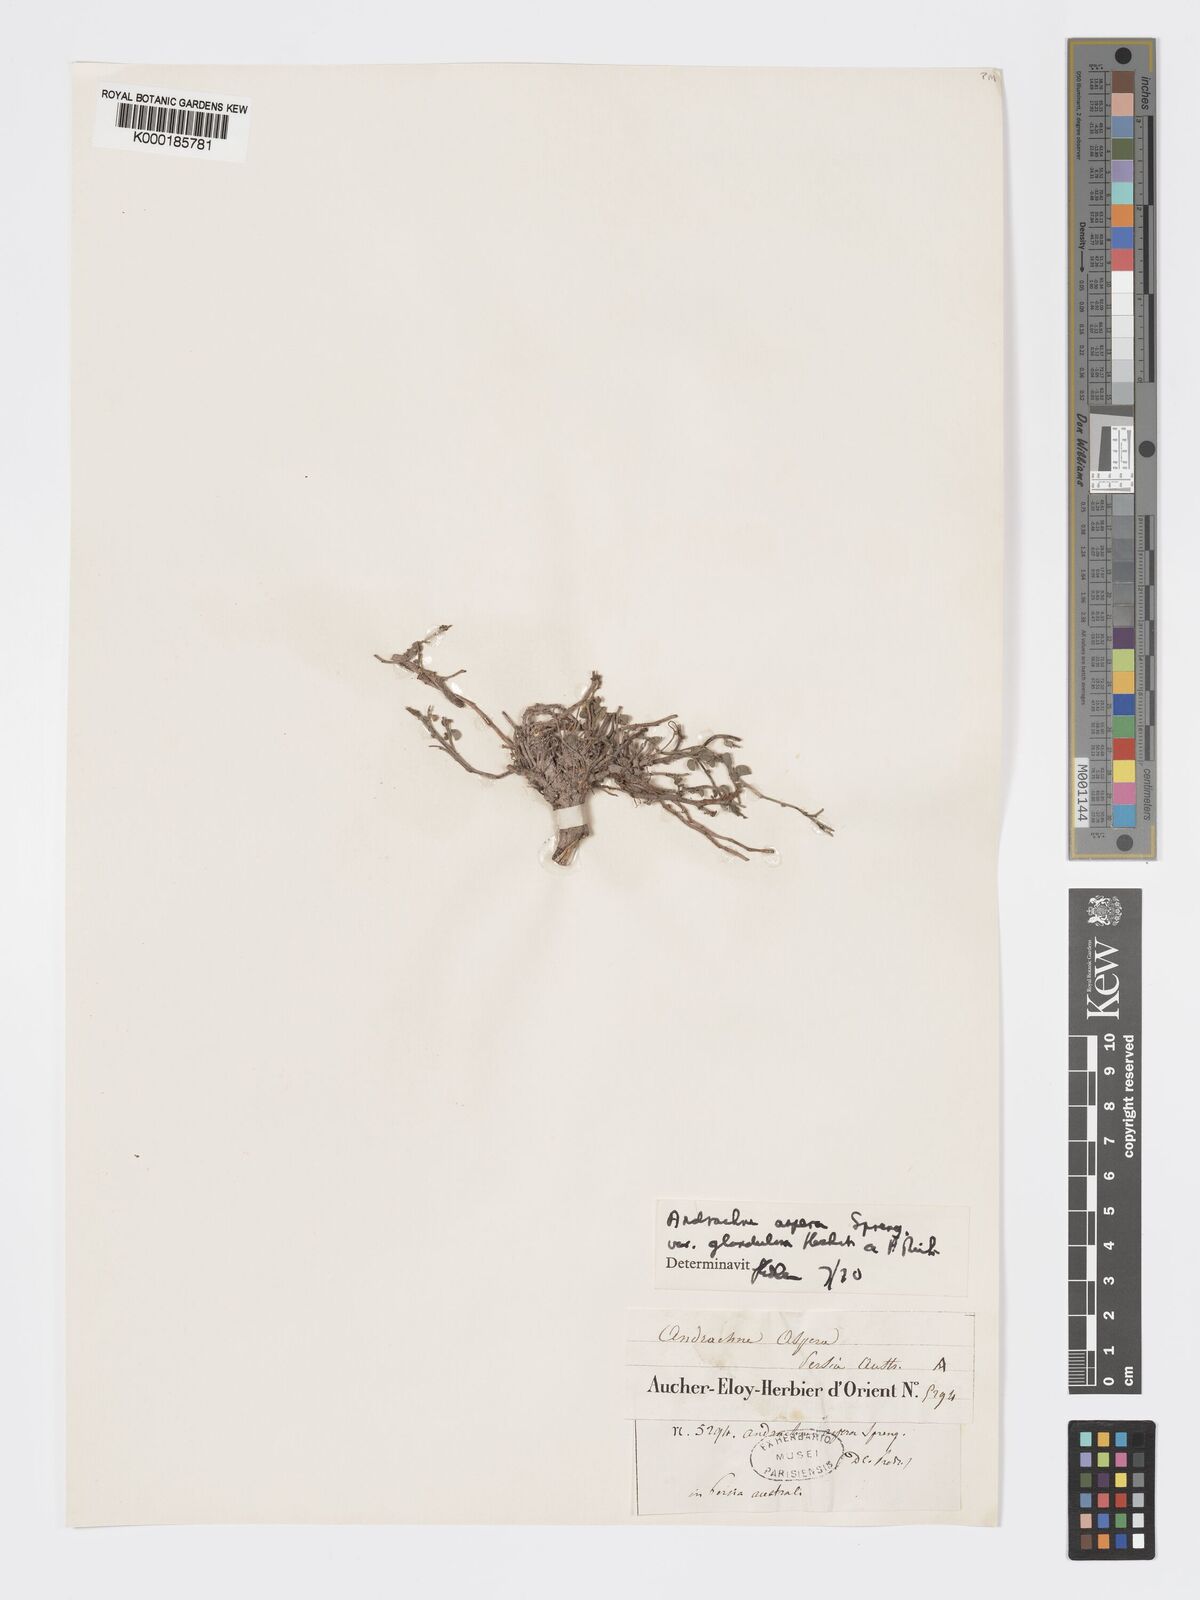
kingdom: Plantae
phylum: Tracheophyta
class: Magnoliopsida
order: Malpighiales
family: Phyllanthaceae
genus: Andrachne
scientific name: Andrachne aspera
